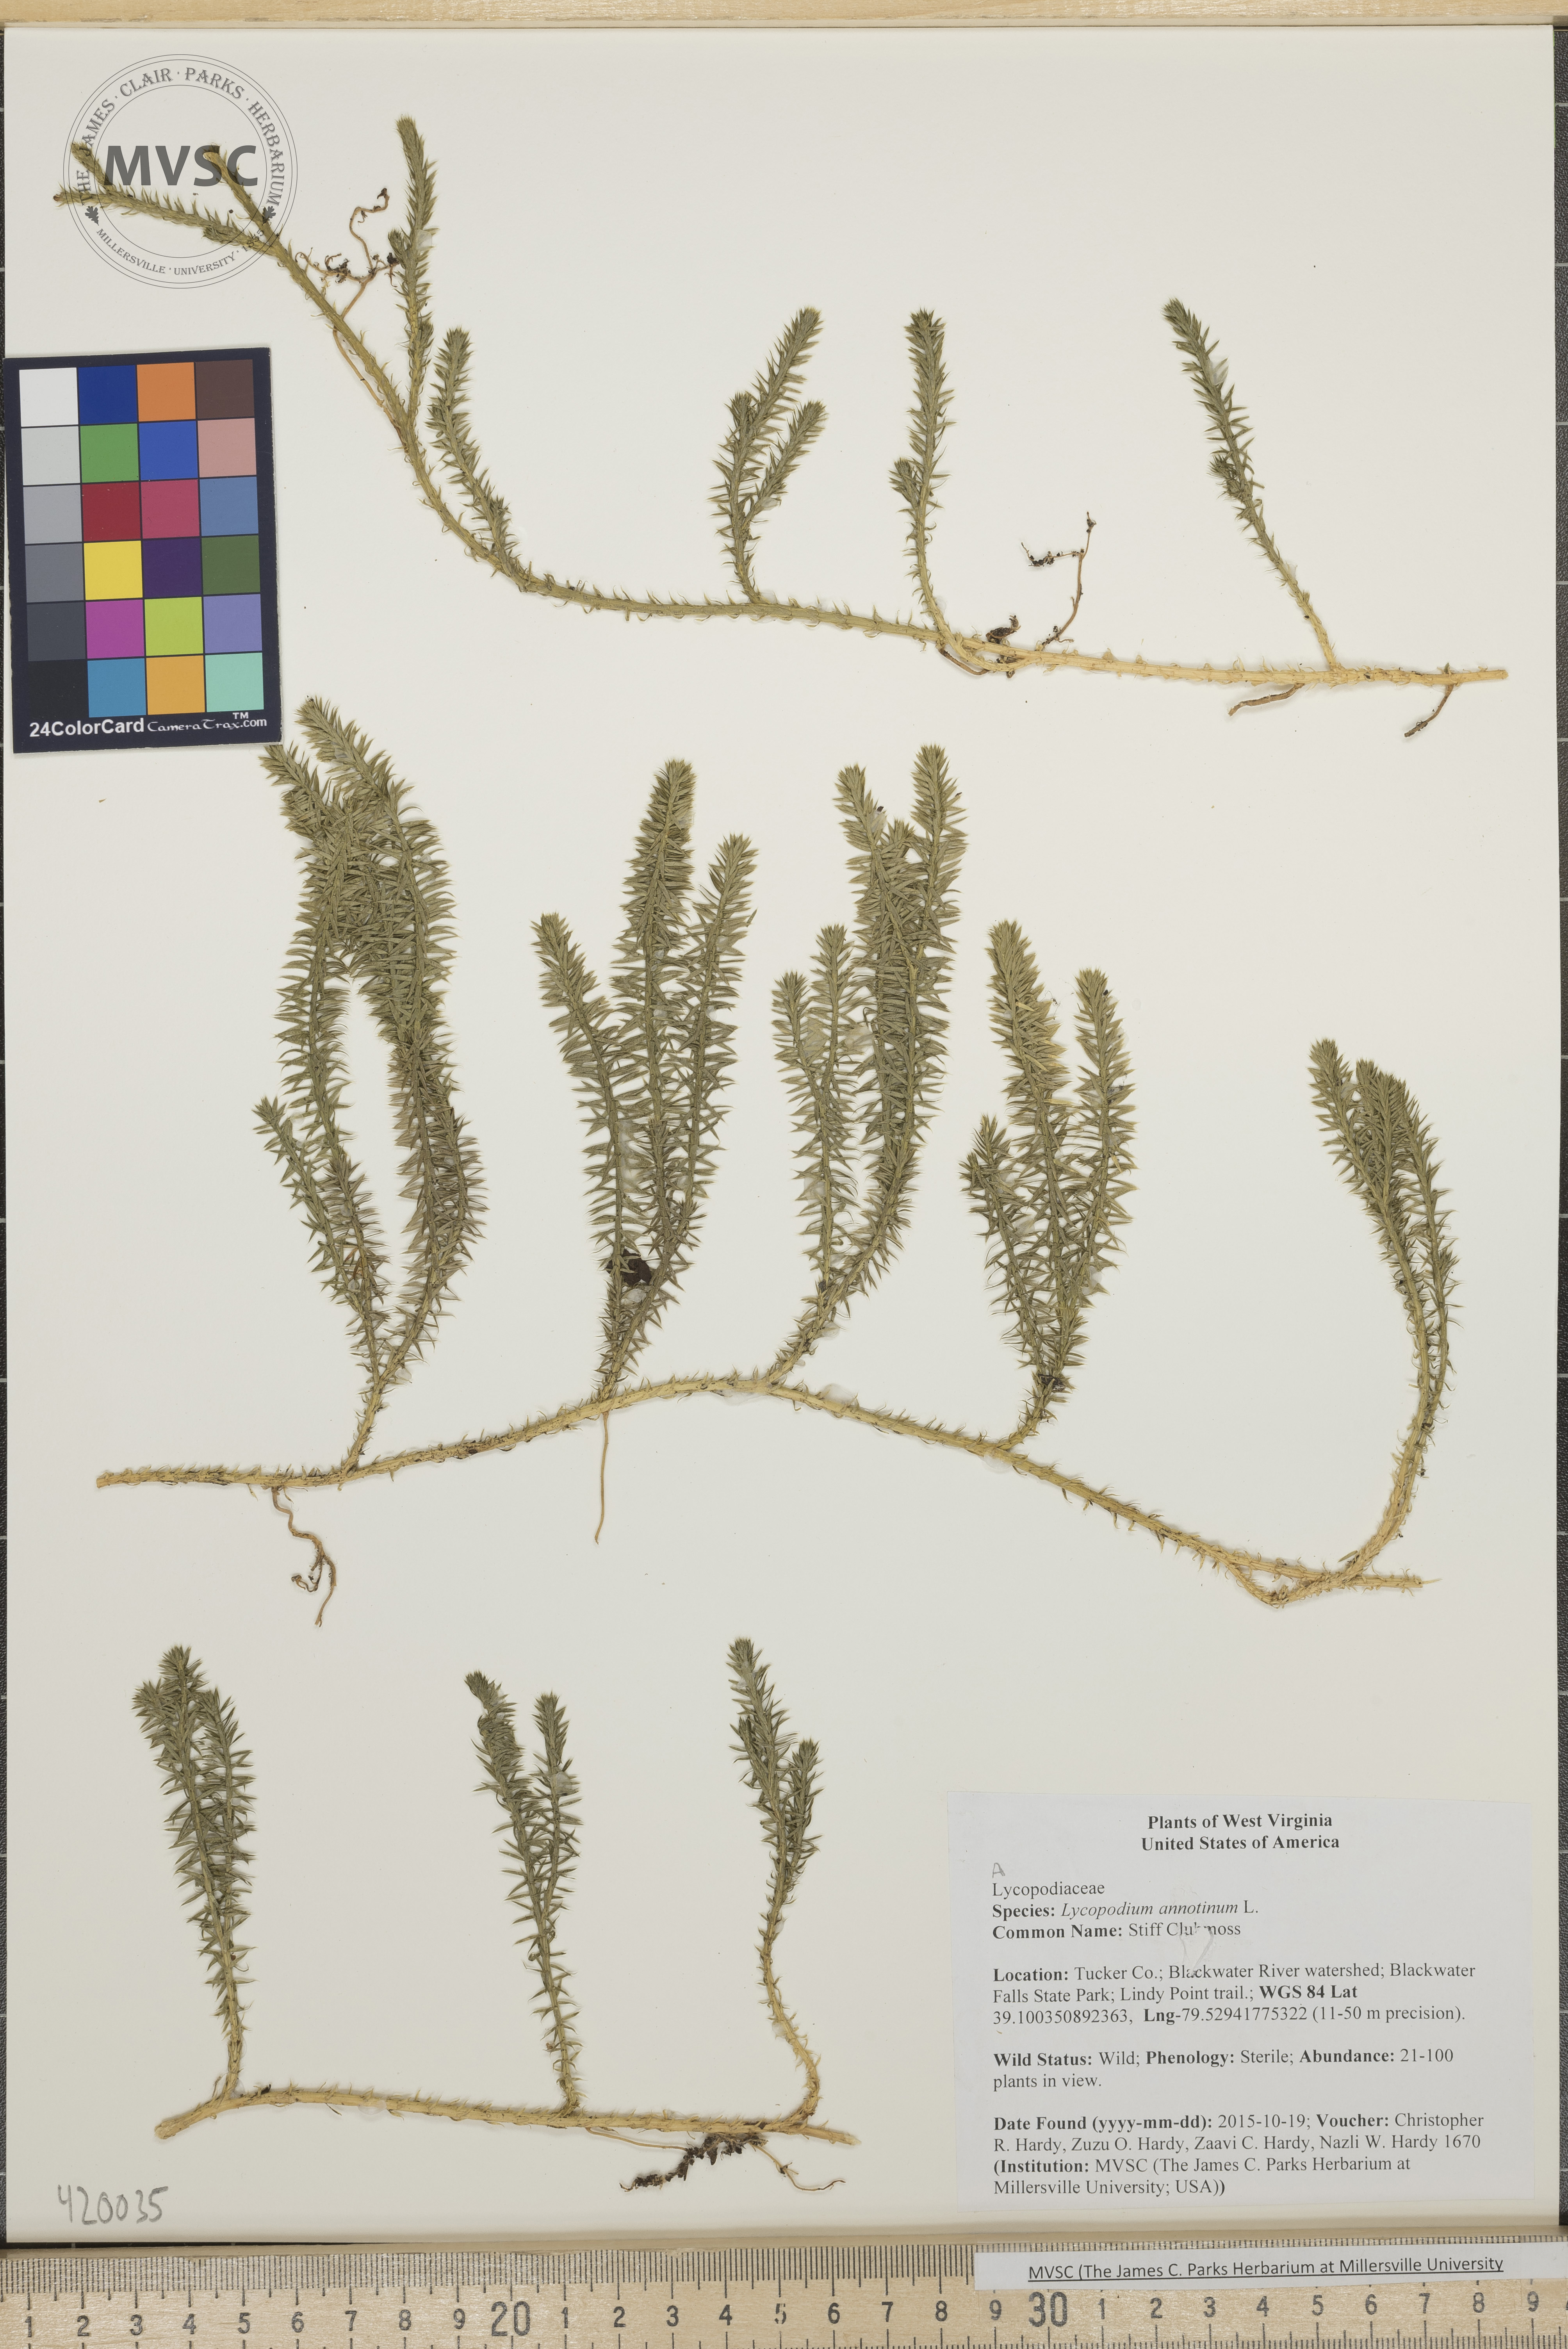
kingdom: Plantae
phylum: Tracheophyta
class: Lycopodiopsida
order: Lycopodiales
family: Lycopodiaceae
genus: Spinulum
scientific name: Spinulum annotinum
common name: Stiff Clubmoss
